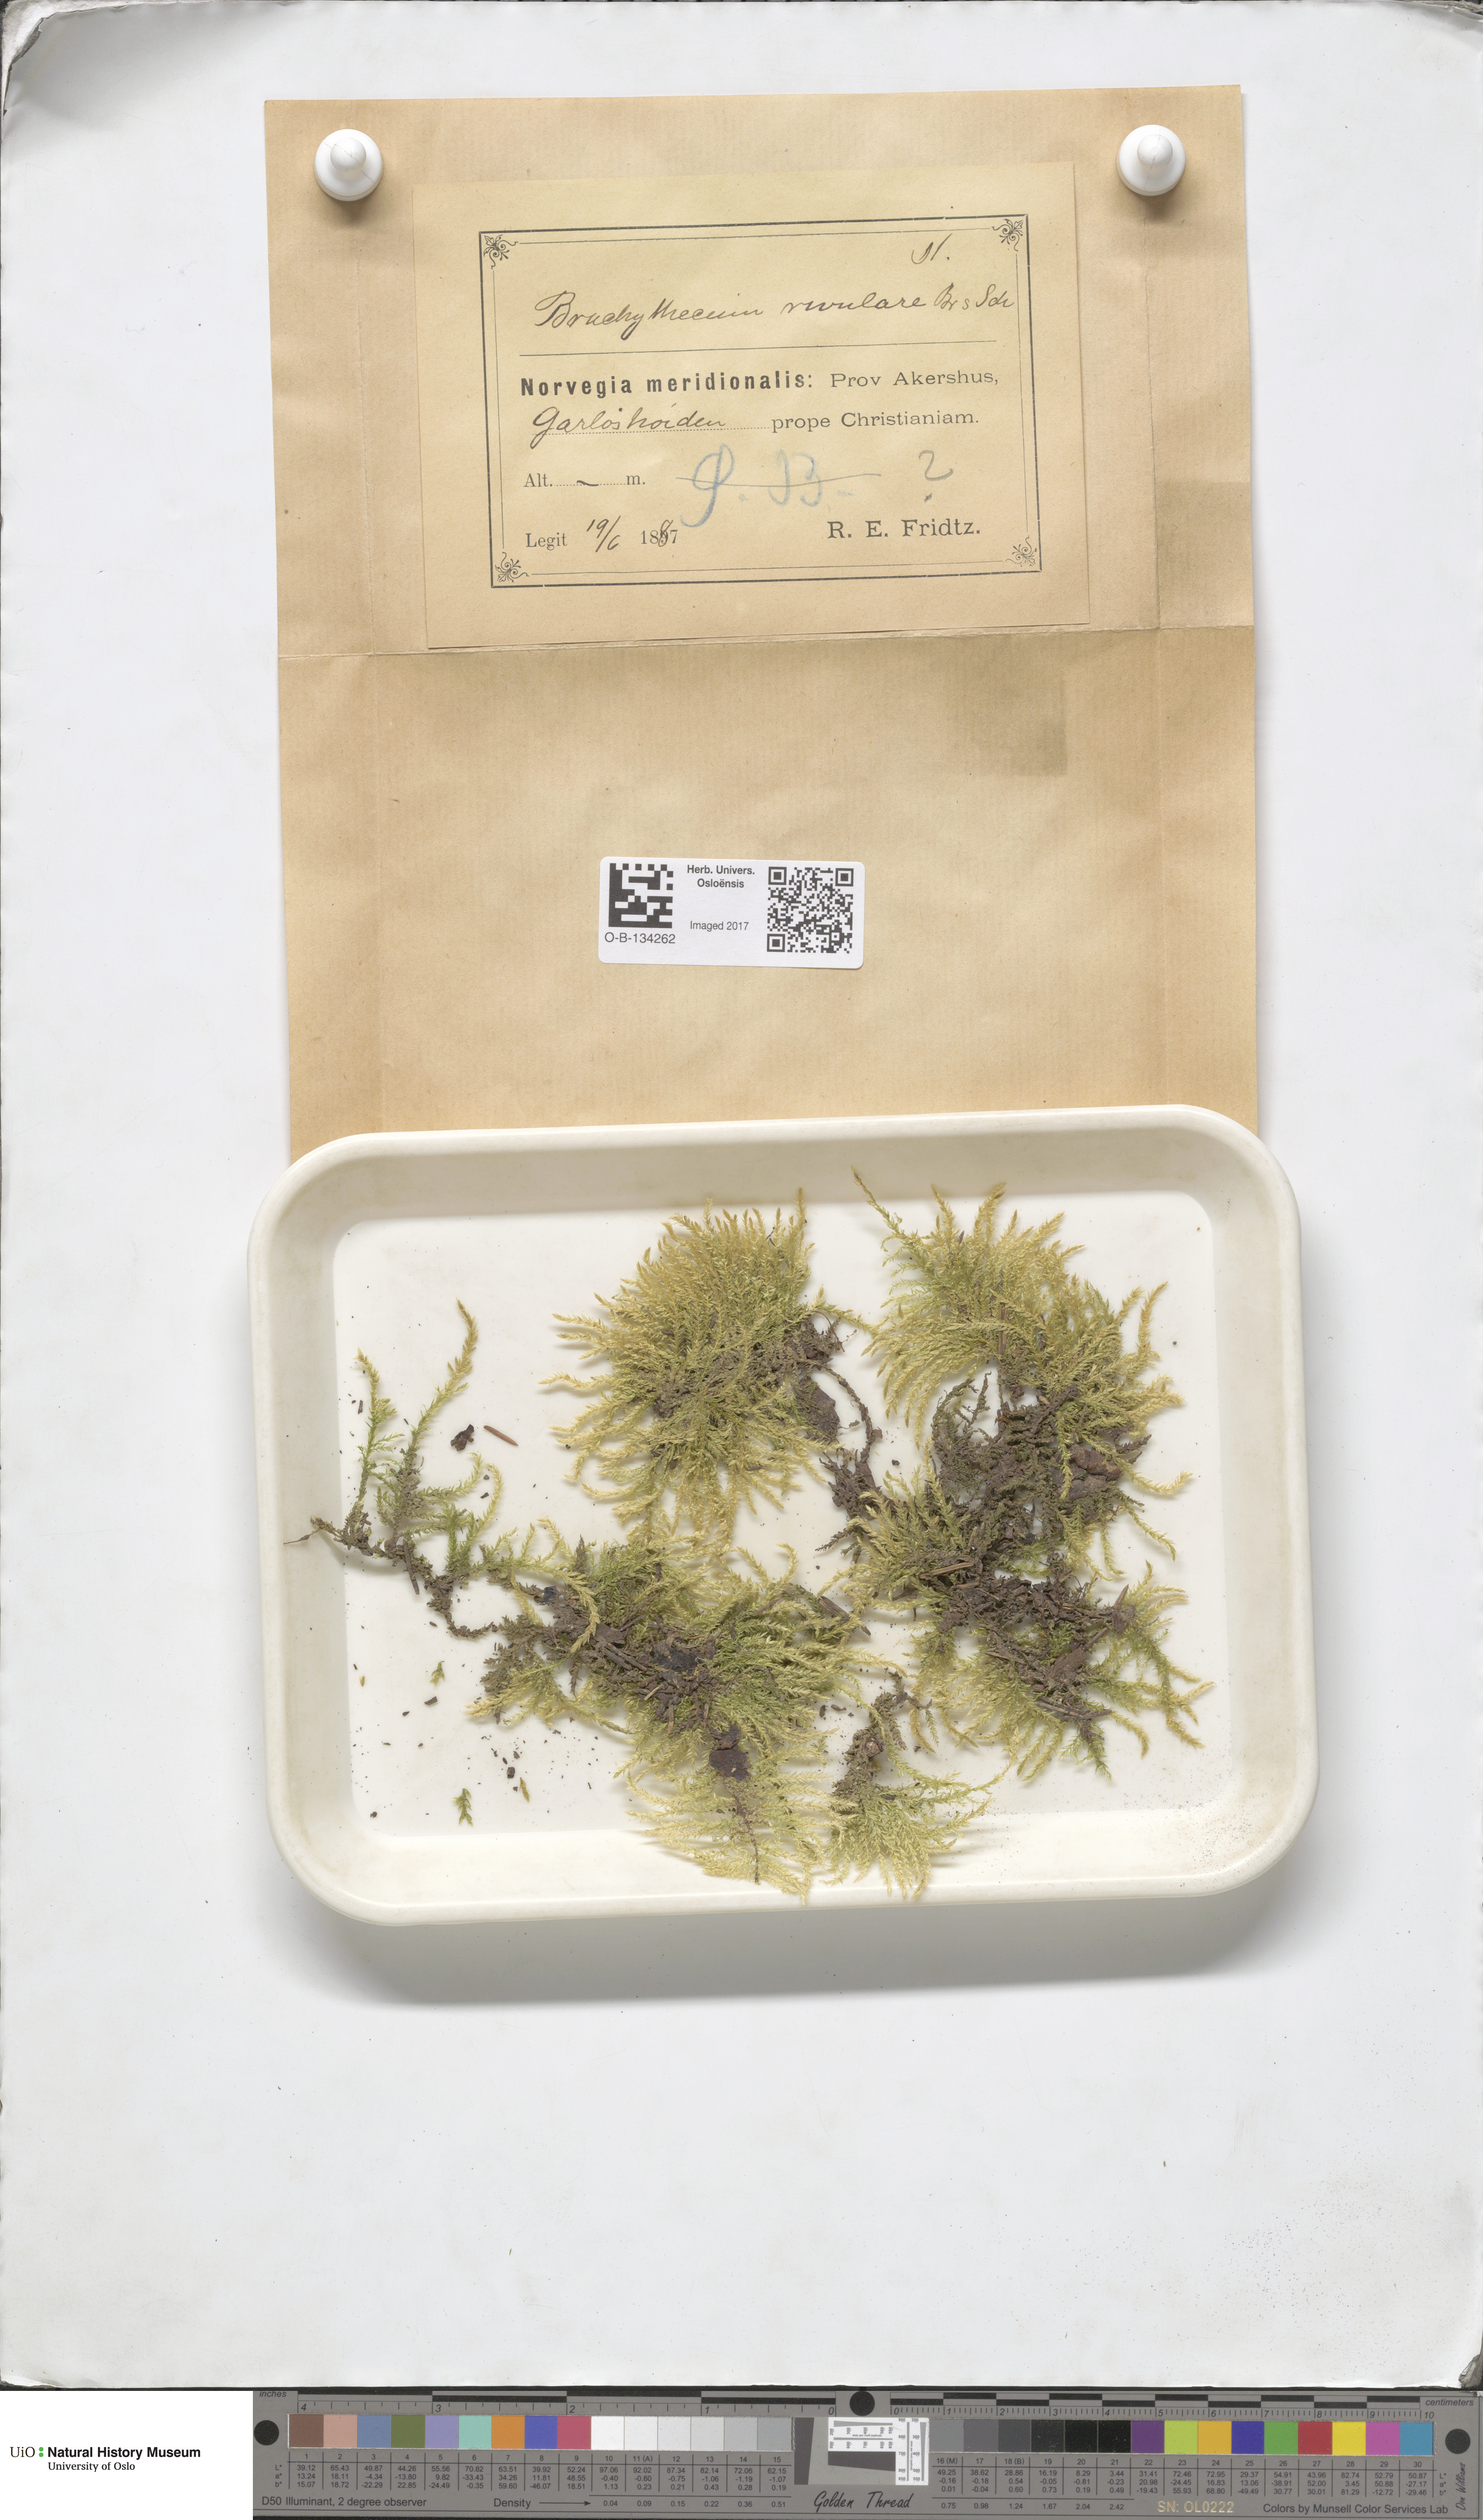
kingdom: Plantae
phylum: Bryophyta
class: Bryopsida
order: Hypnales
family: Brachytheciaceae
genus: Brachythecium
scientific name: Brachythecium rivulare
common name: River ragged moss
